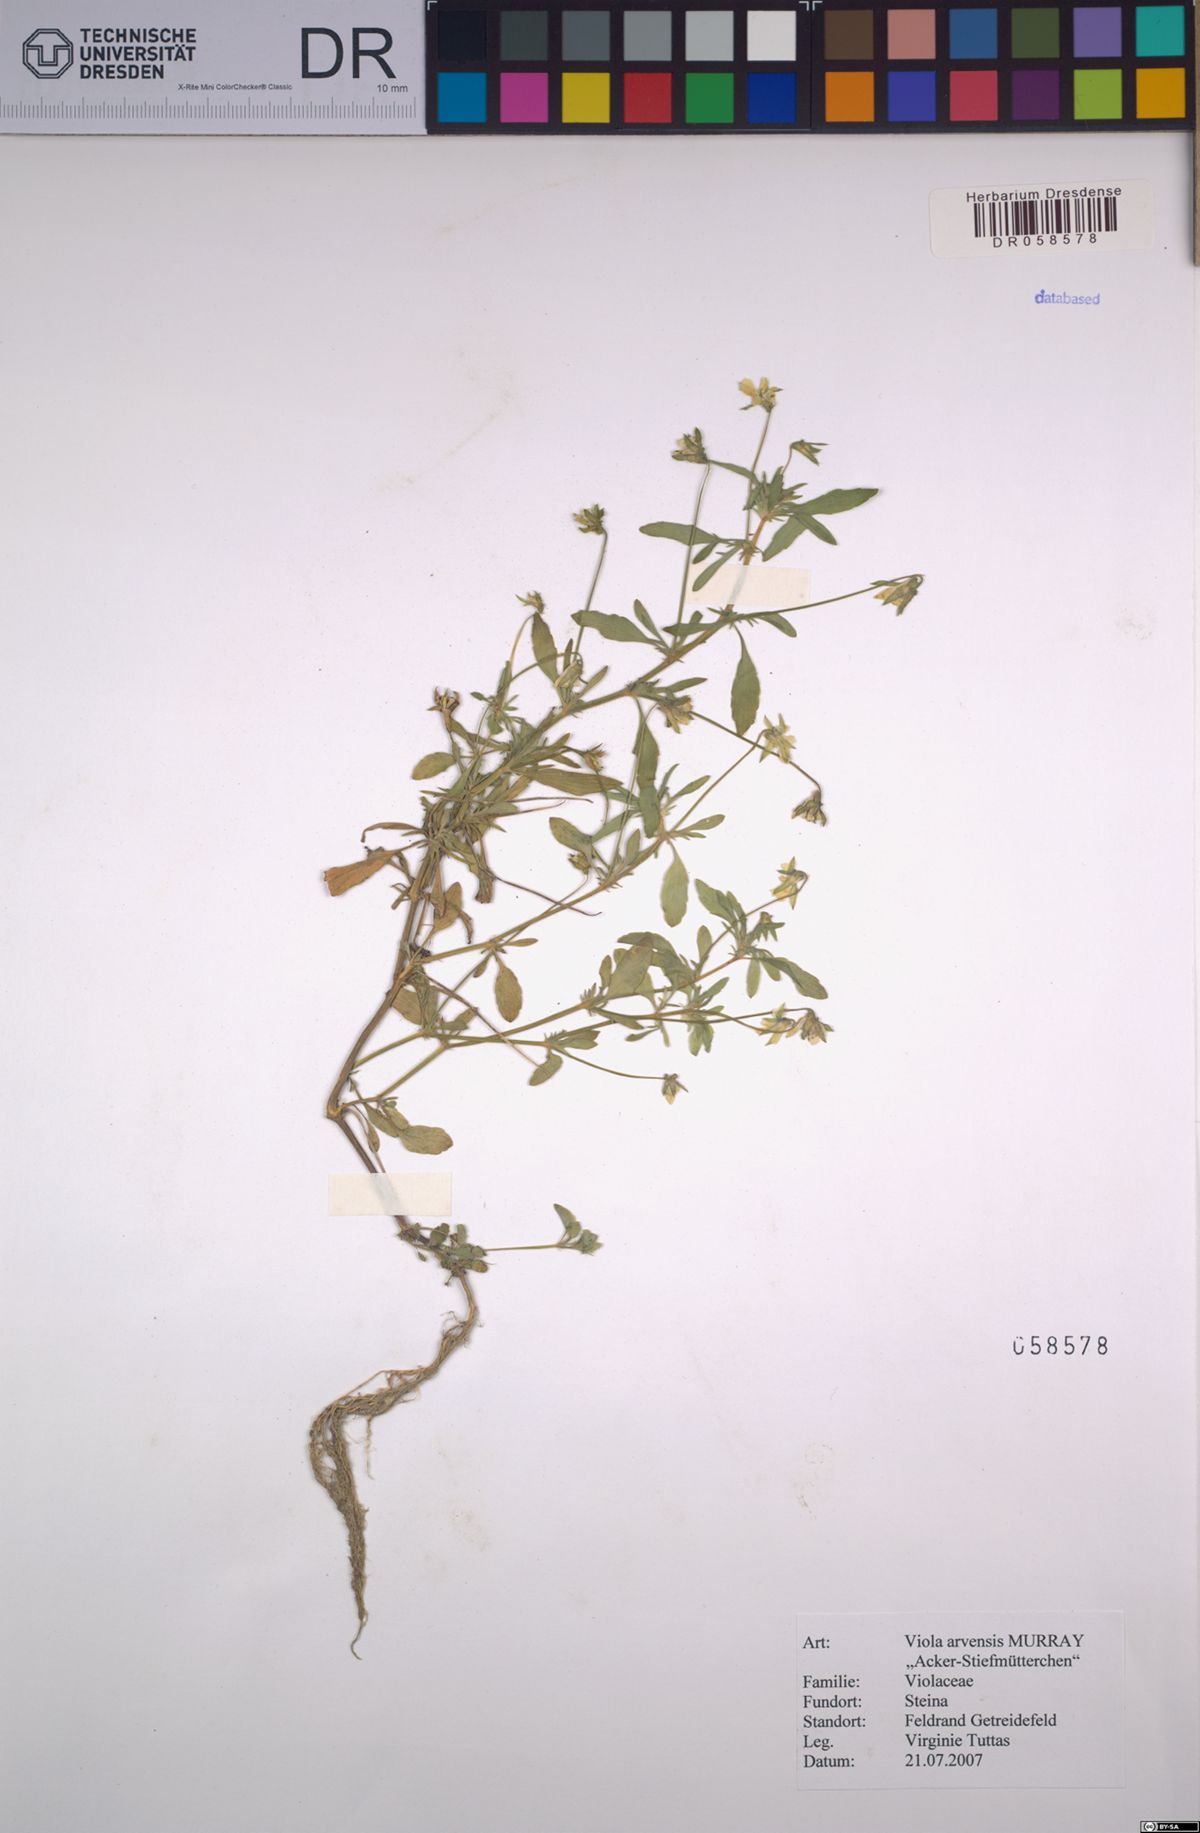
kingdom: Plantae
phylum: Tracheophyta
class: Magnoliopsida
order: Malpighiales
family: Violaceae
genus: Viola
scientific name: Viola arvensis
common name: Field pansy
